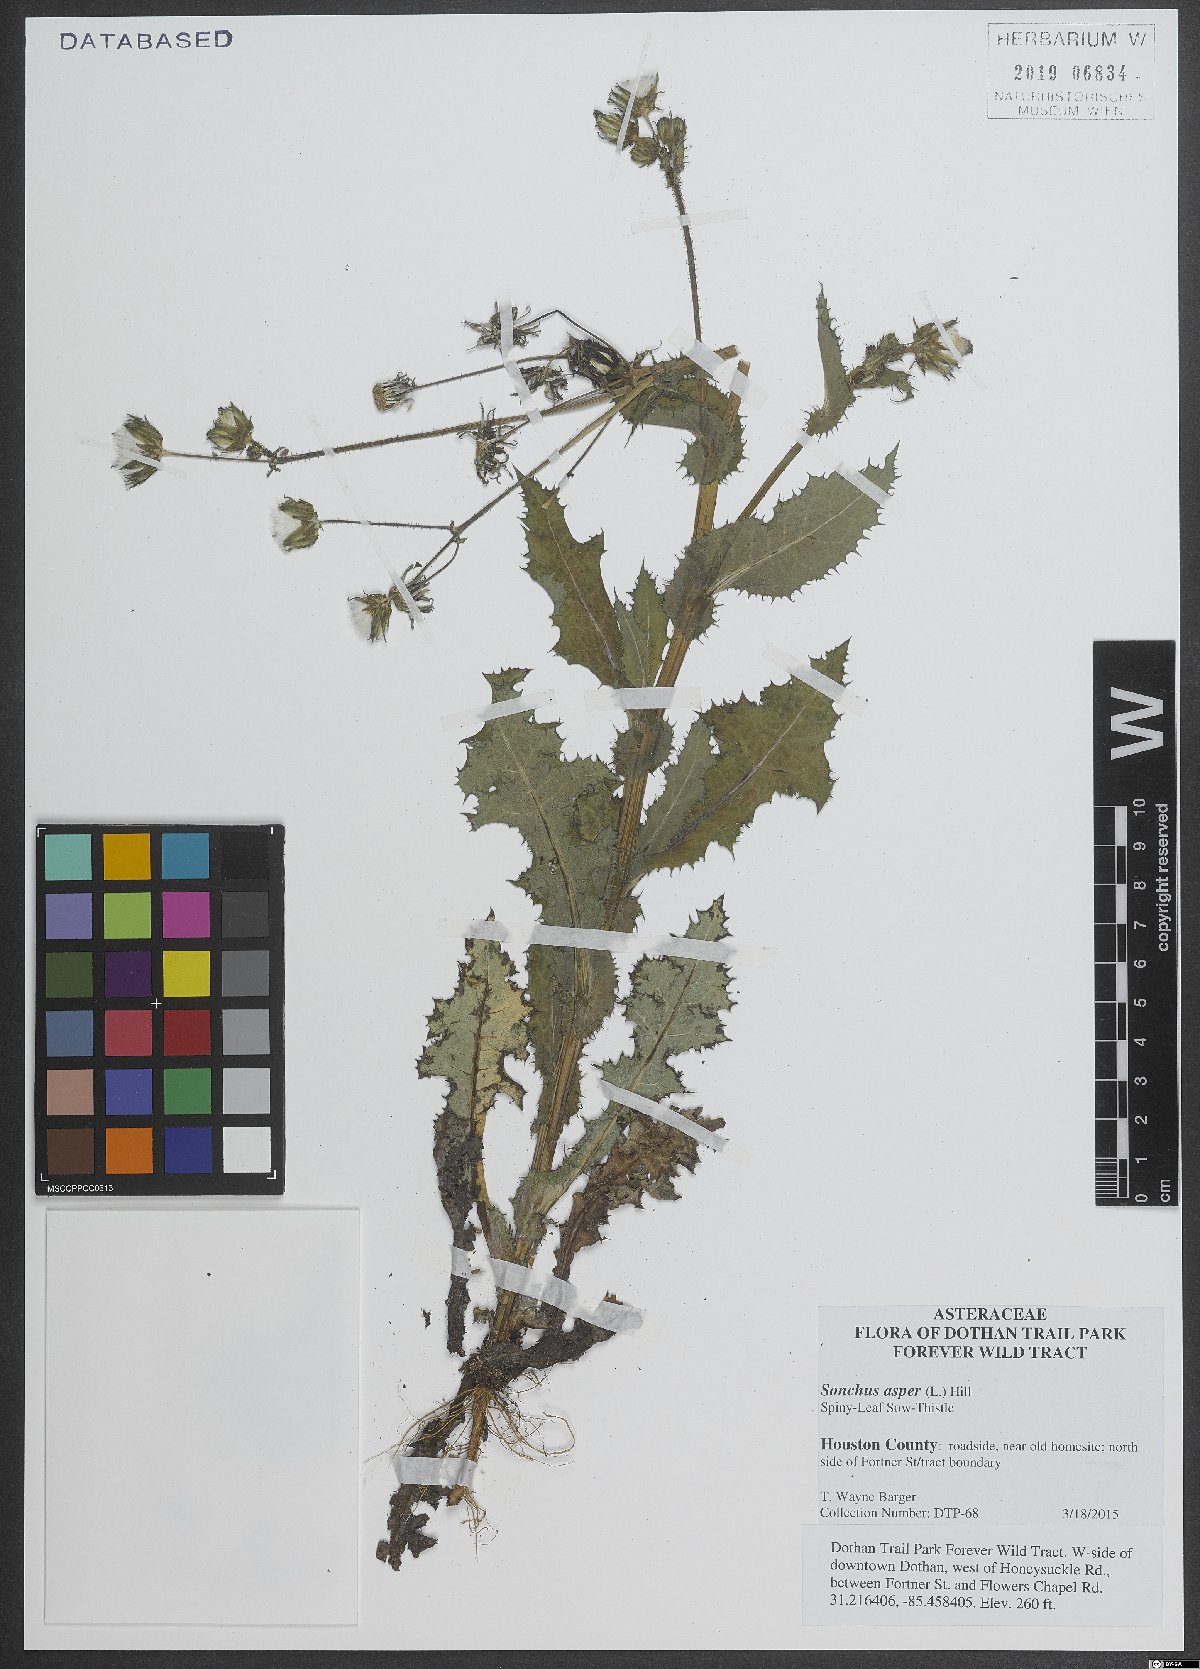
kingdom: Plantae
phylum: Tracheophyta
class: Magnoliopsida
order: Asterales
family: Asteraceae
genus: Sonchus
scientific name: Sonchus asper
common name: Prickly sow-thistle
